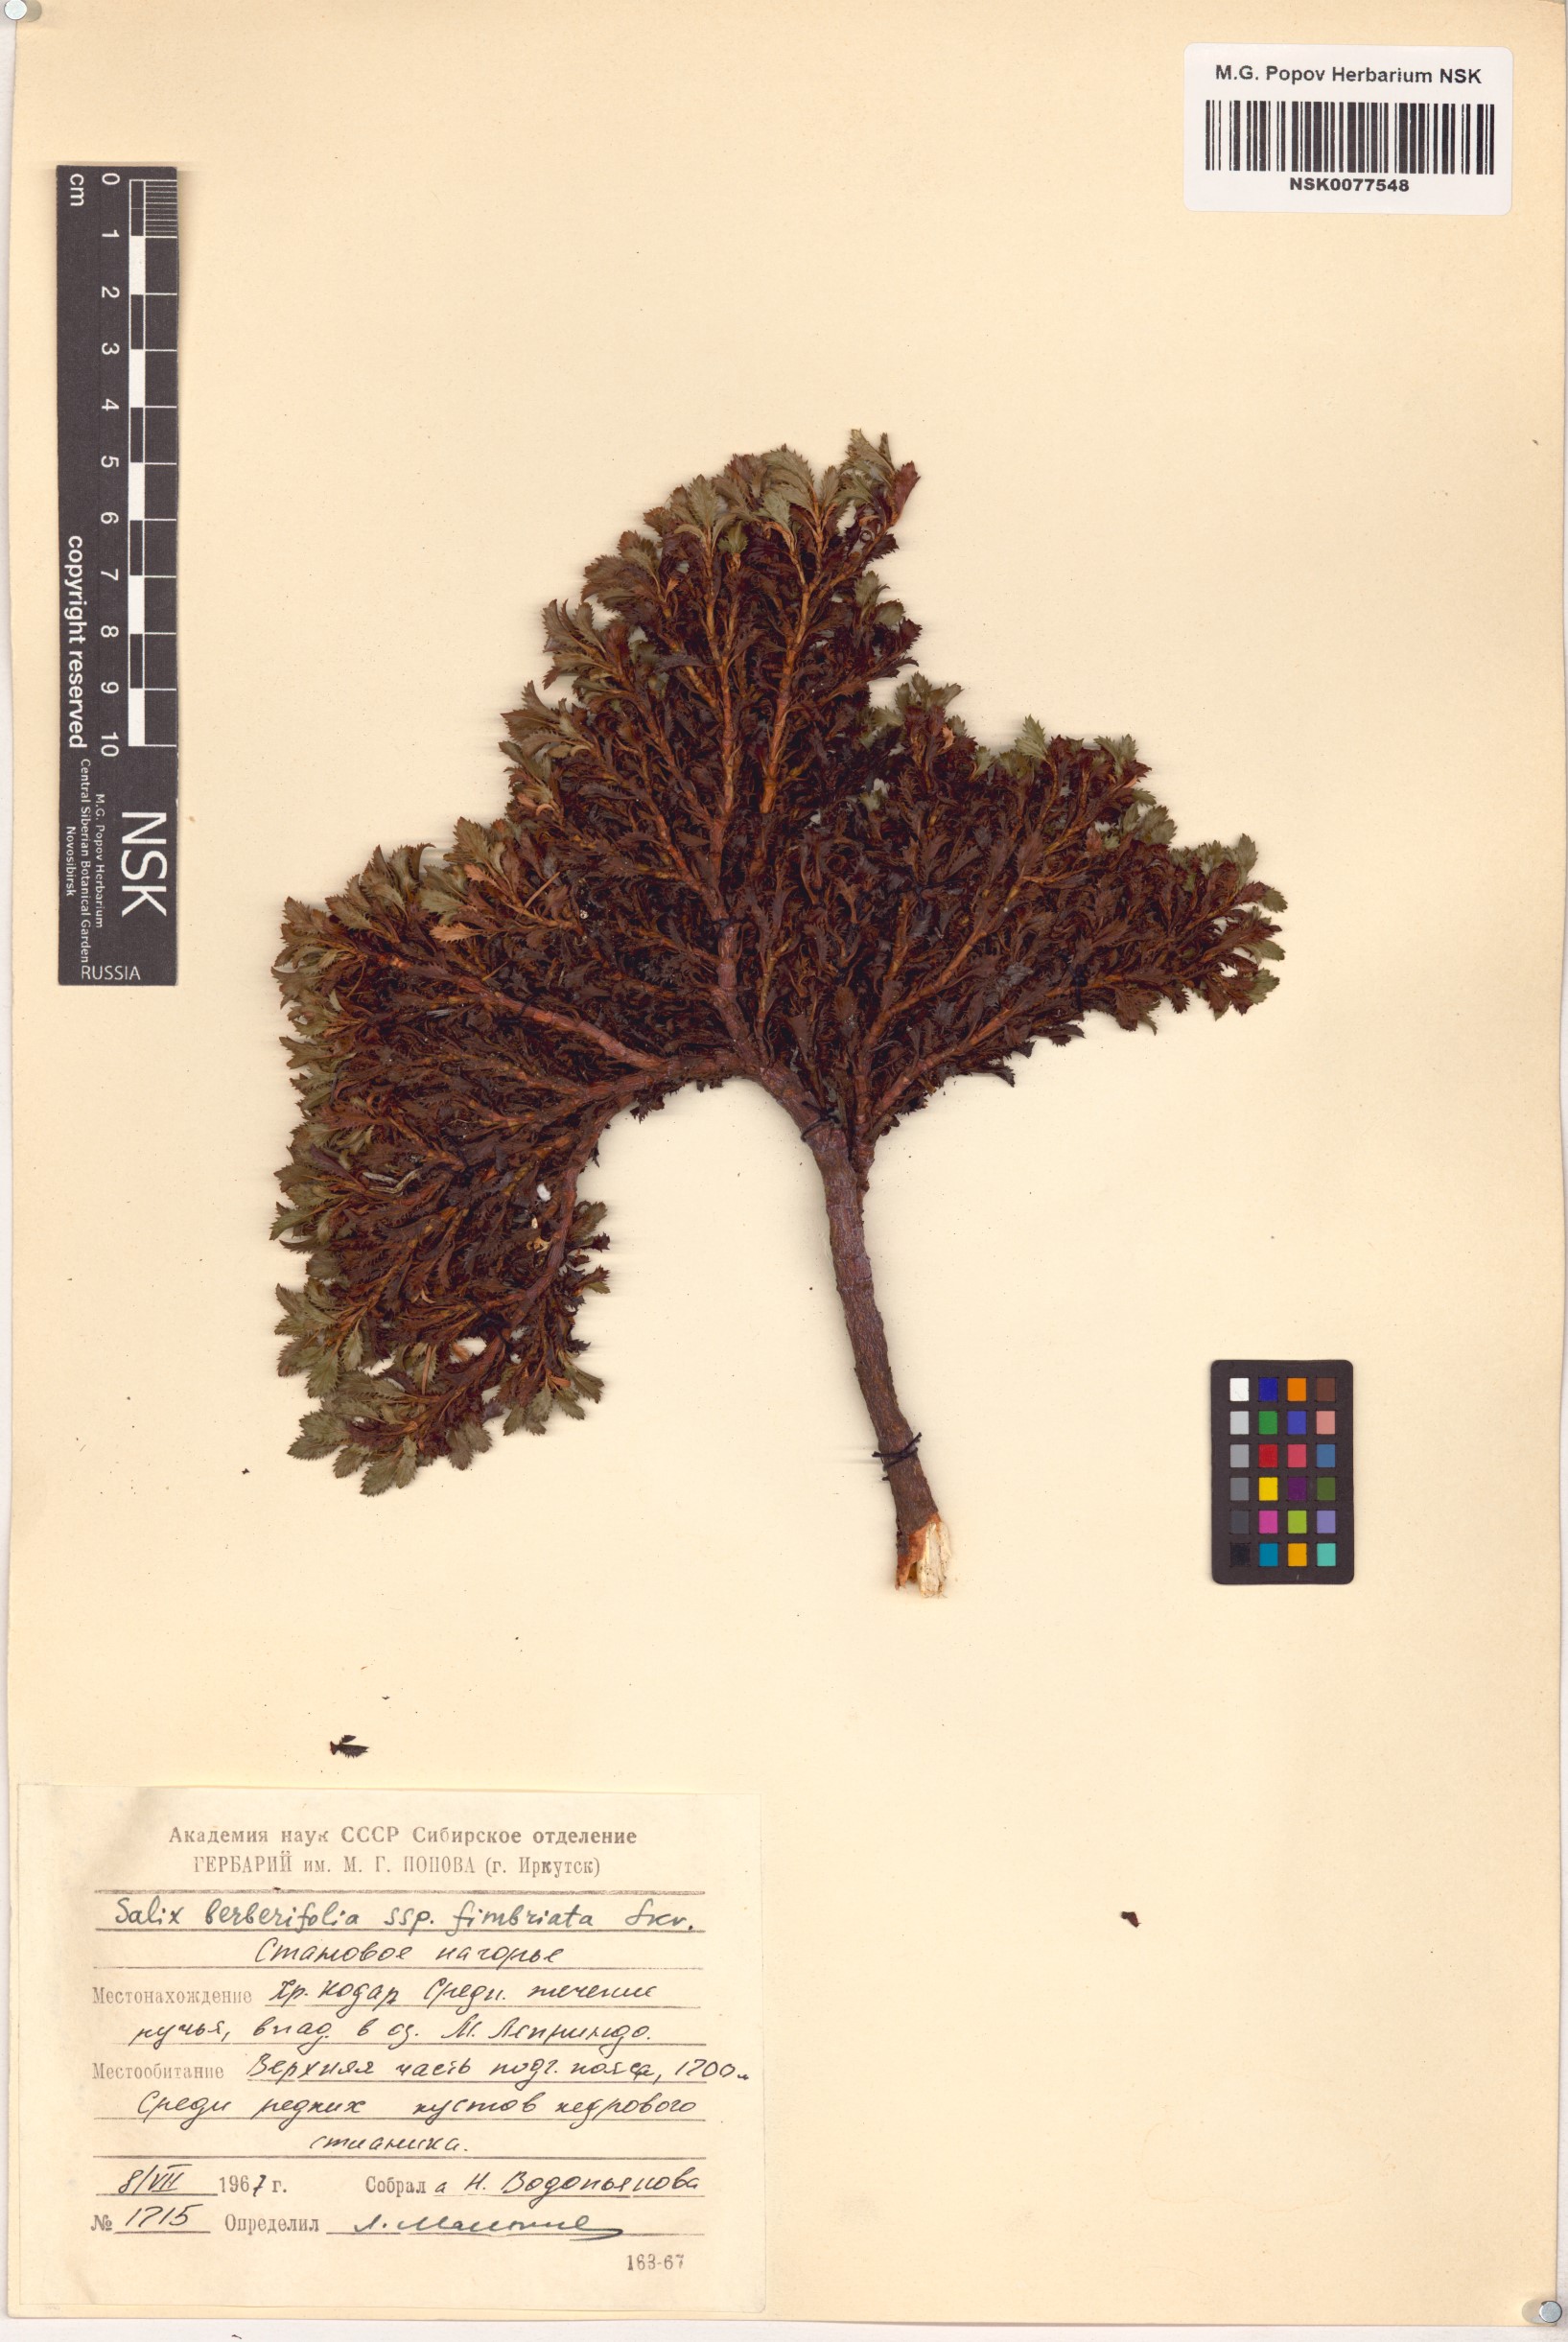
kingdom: Plantae
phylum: Tracheophyta
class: Magnoliopsida
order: Malpighiales
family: Salicaceae
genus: Salix
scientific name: Salix berberifolia
